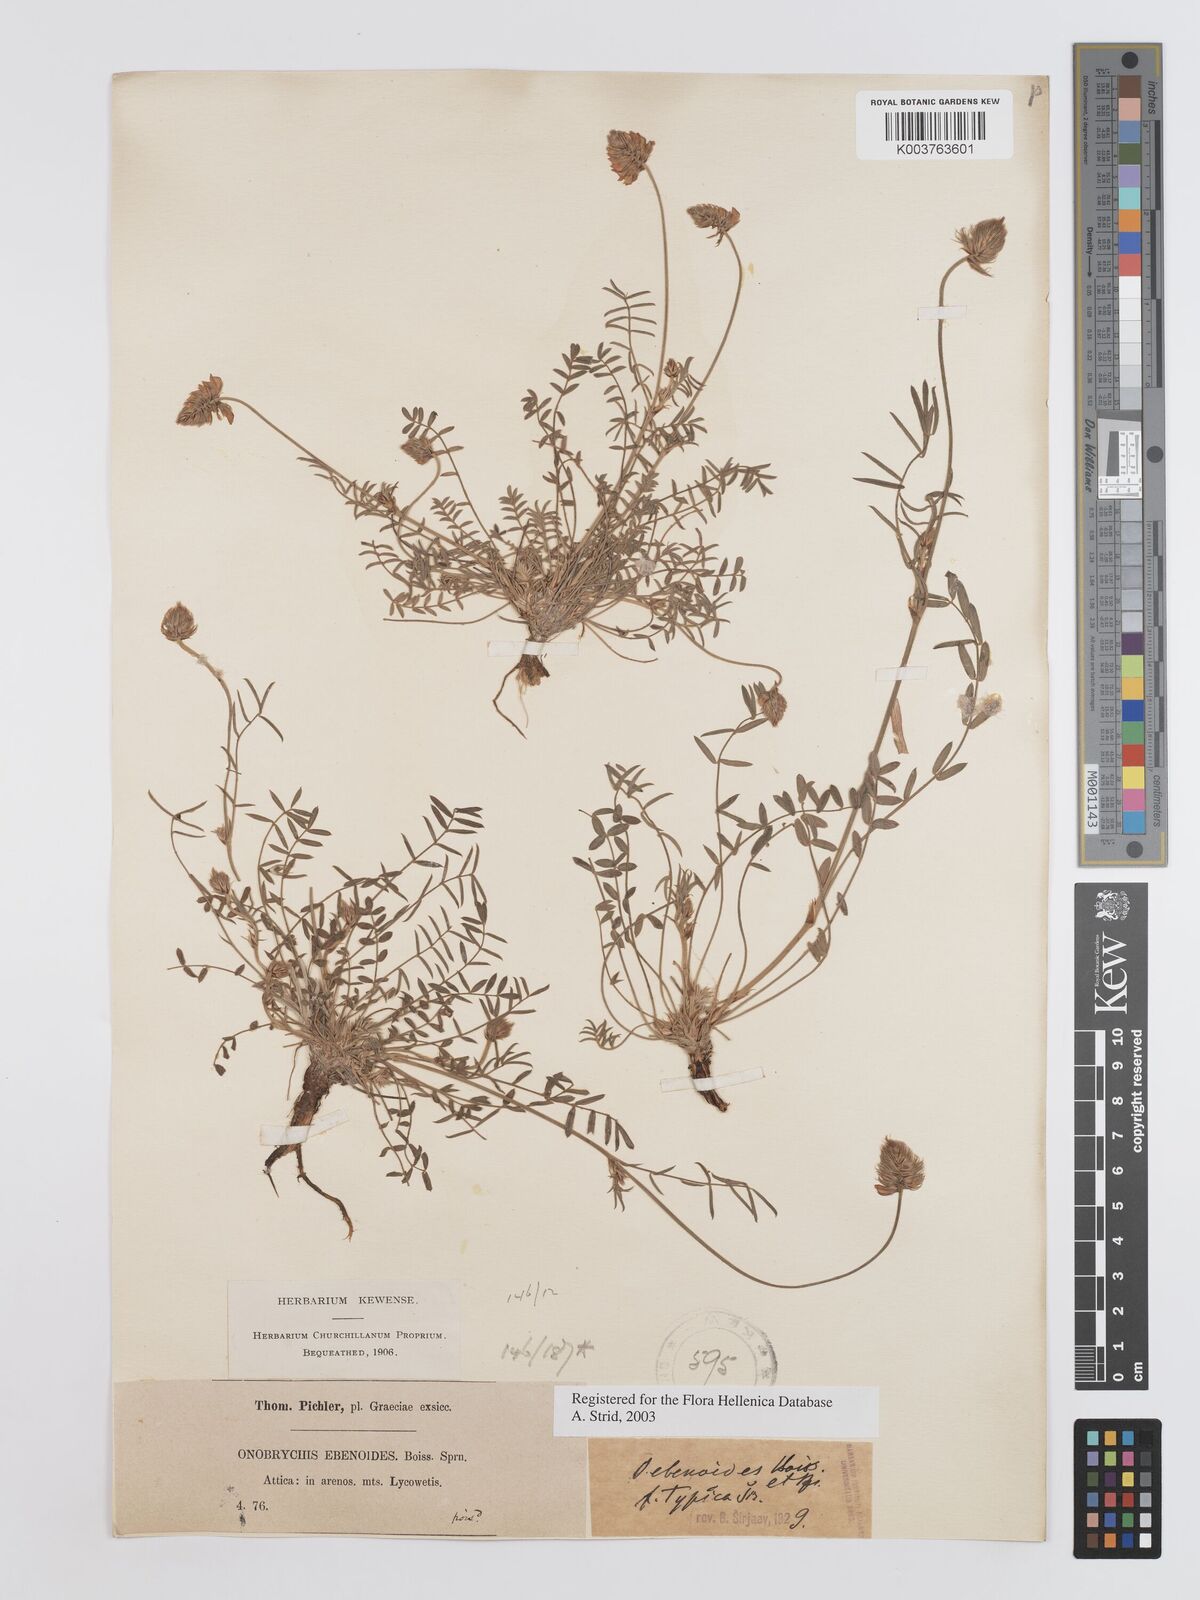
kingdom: Plantae
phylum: Tracheophyta
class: Magnoliopsida
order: Fabales
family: Fabaceae
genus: Onobrychis
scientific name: Onobrychis ebenoides
